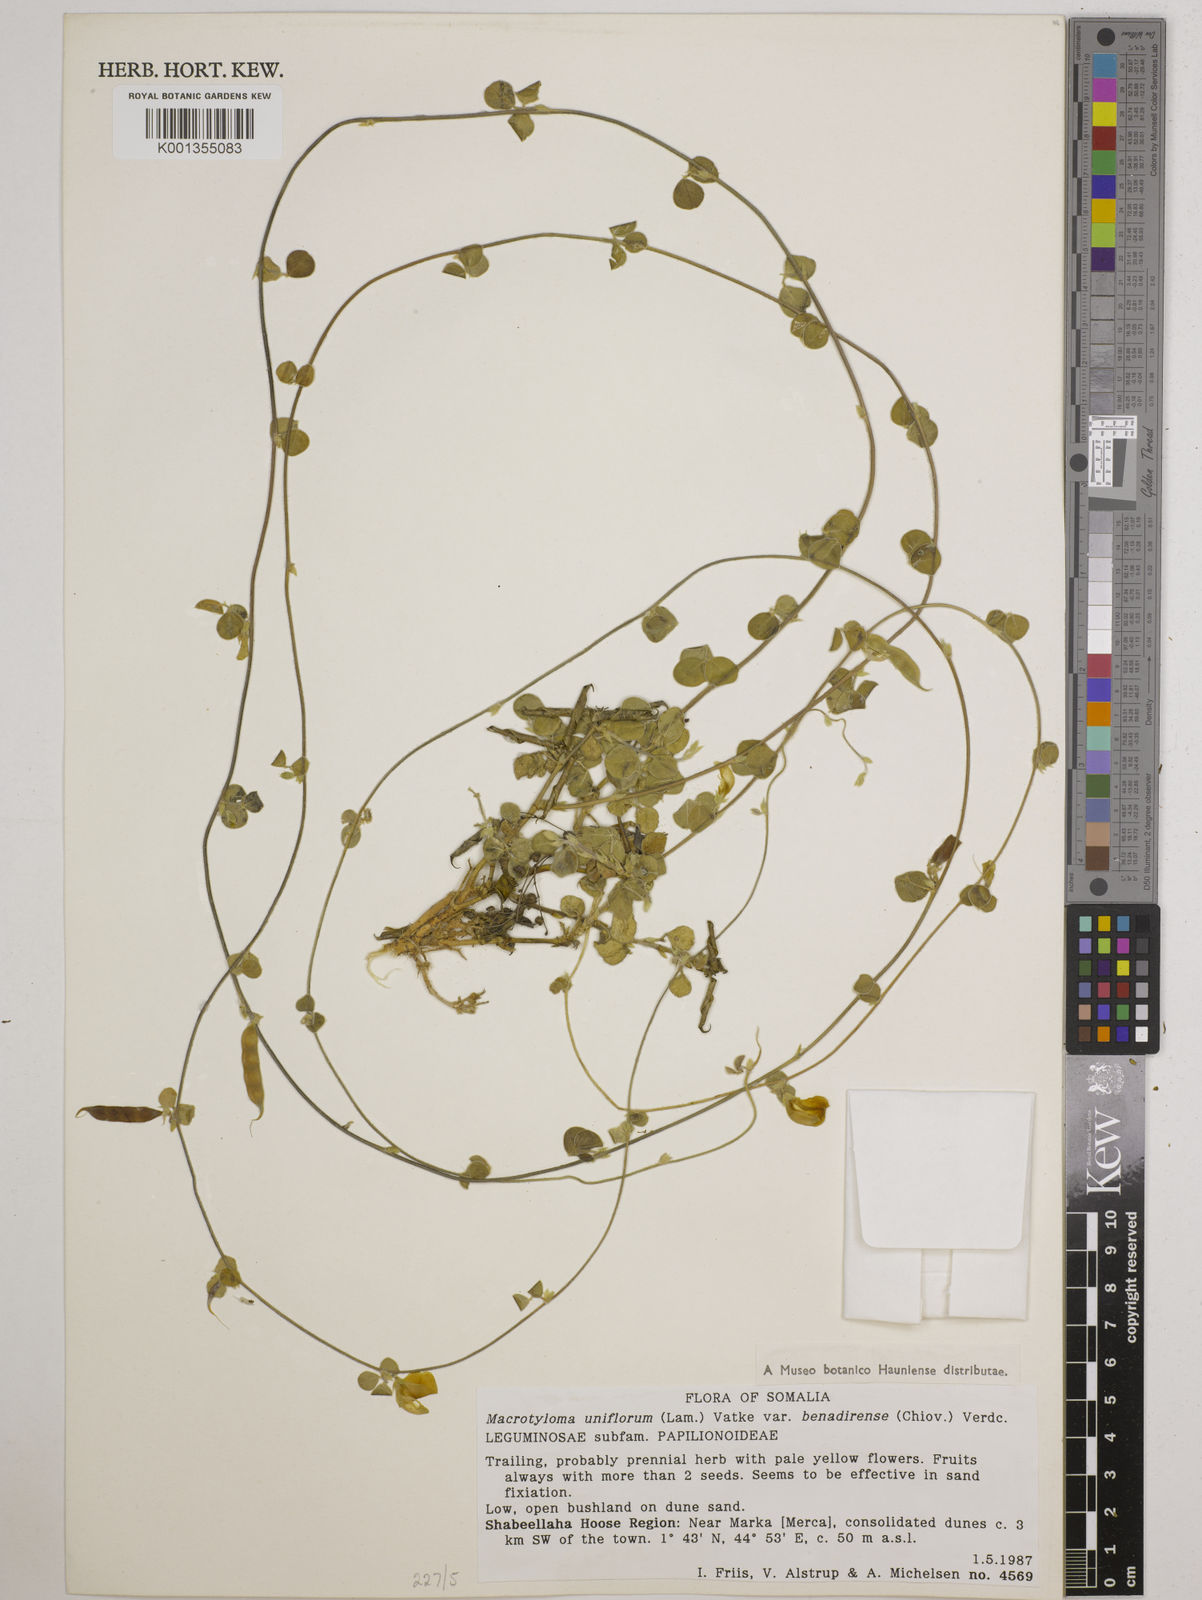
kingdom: Plantae
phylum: Tracheophyta
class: Magnoliopsida
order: Fabales
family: Fabaceae
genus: Macrotyloma
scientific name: Macrotyloma uniflorum
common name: Horse gram
